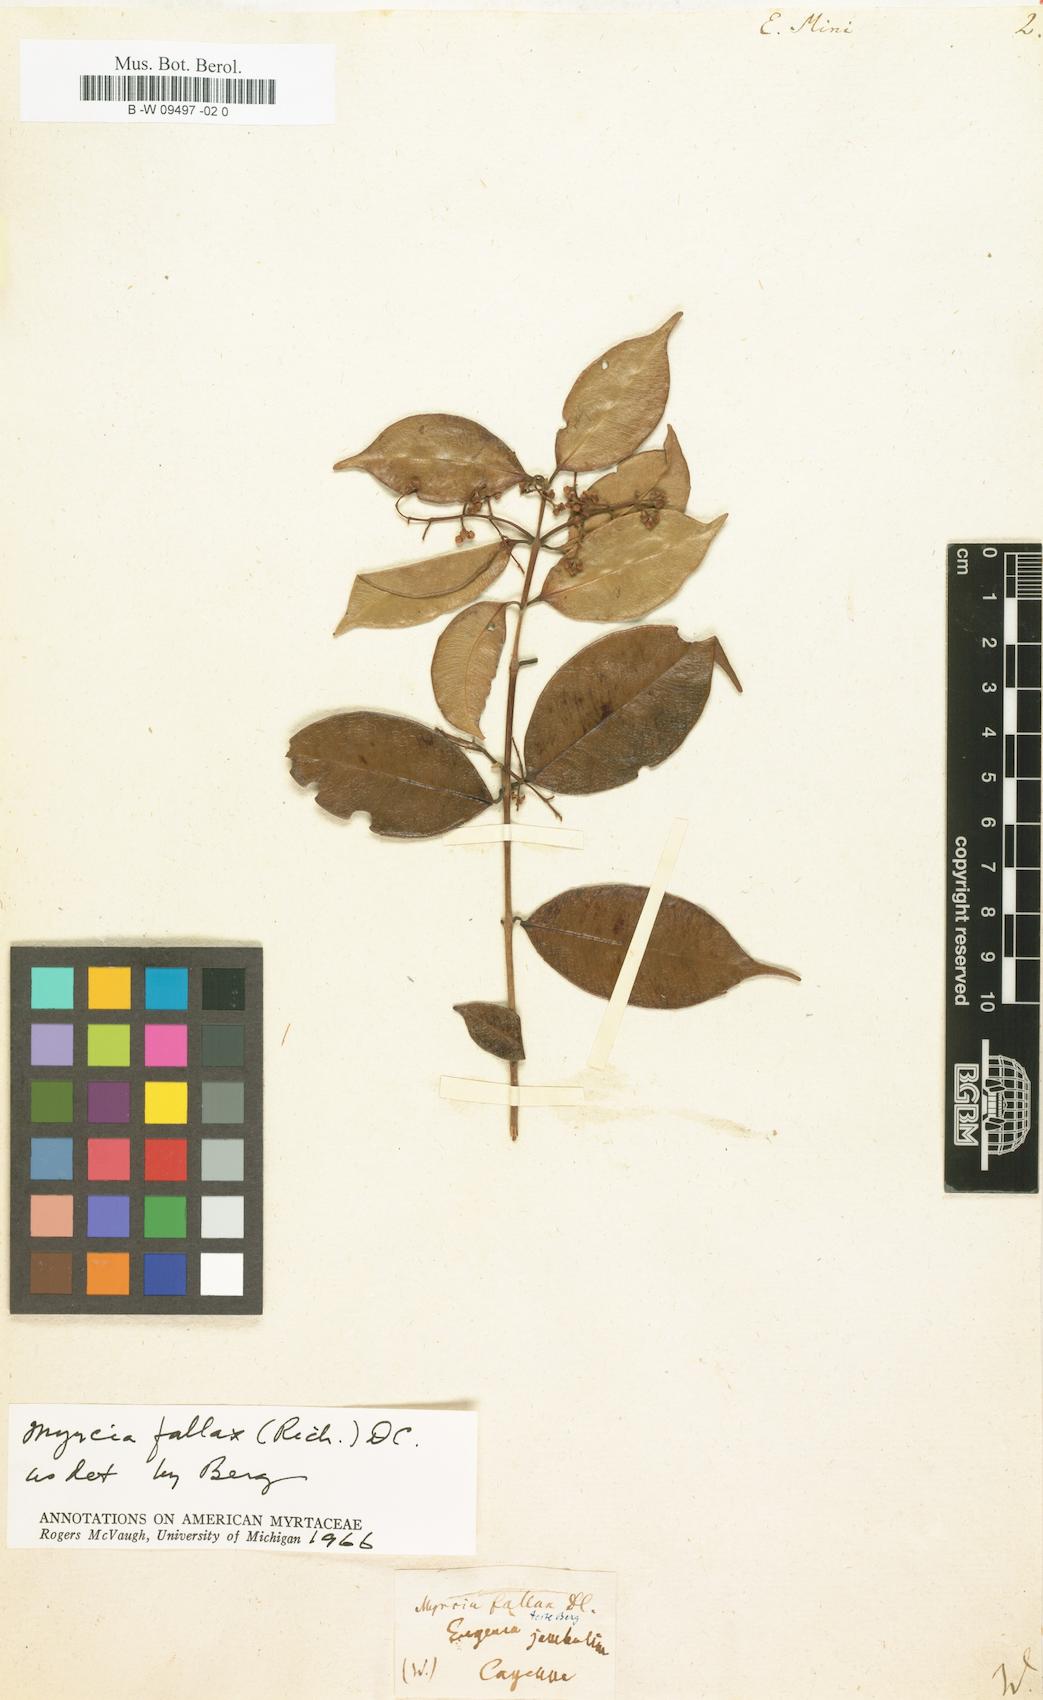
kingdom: Plantae
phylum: Tracheophyta
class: Magnoliopsida
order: Myrtales
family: Myrtaceae
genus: Eugenia
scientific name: Eugenia mini
